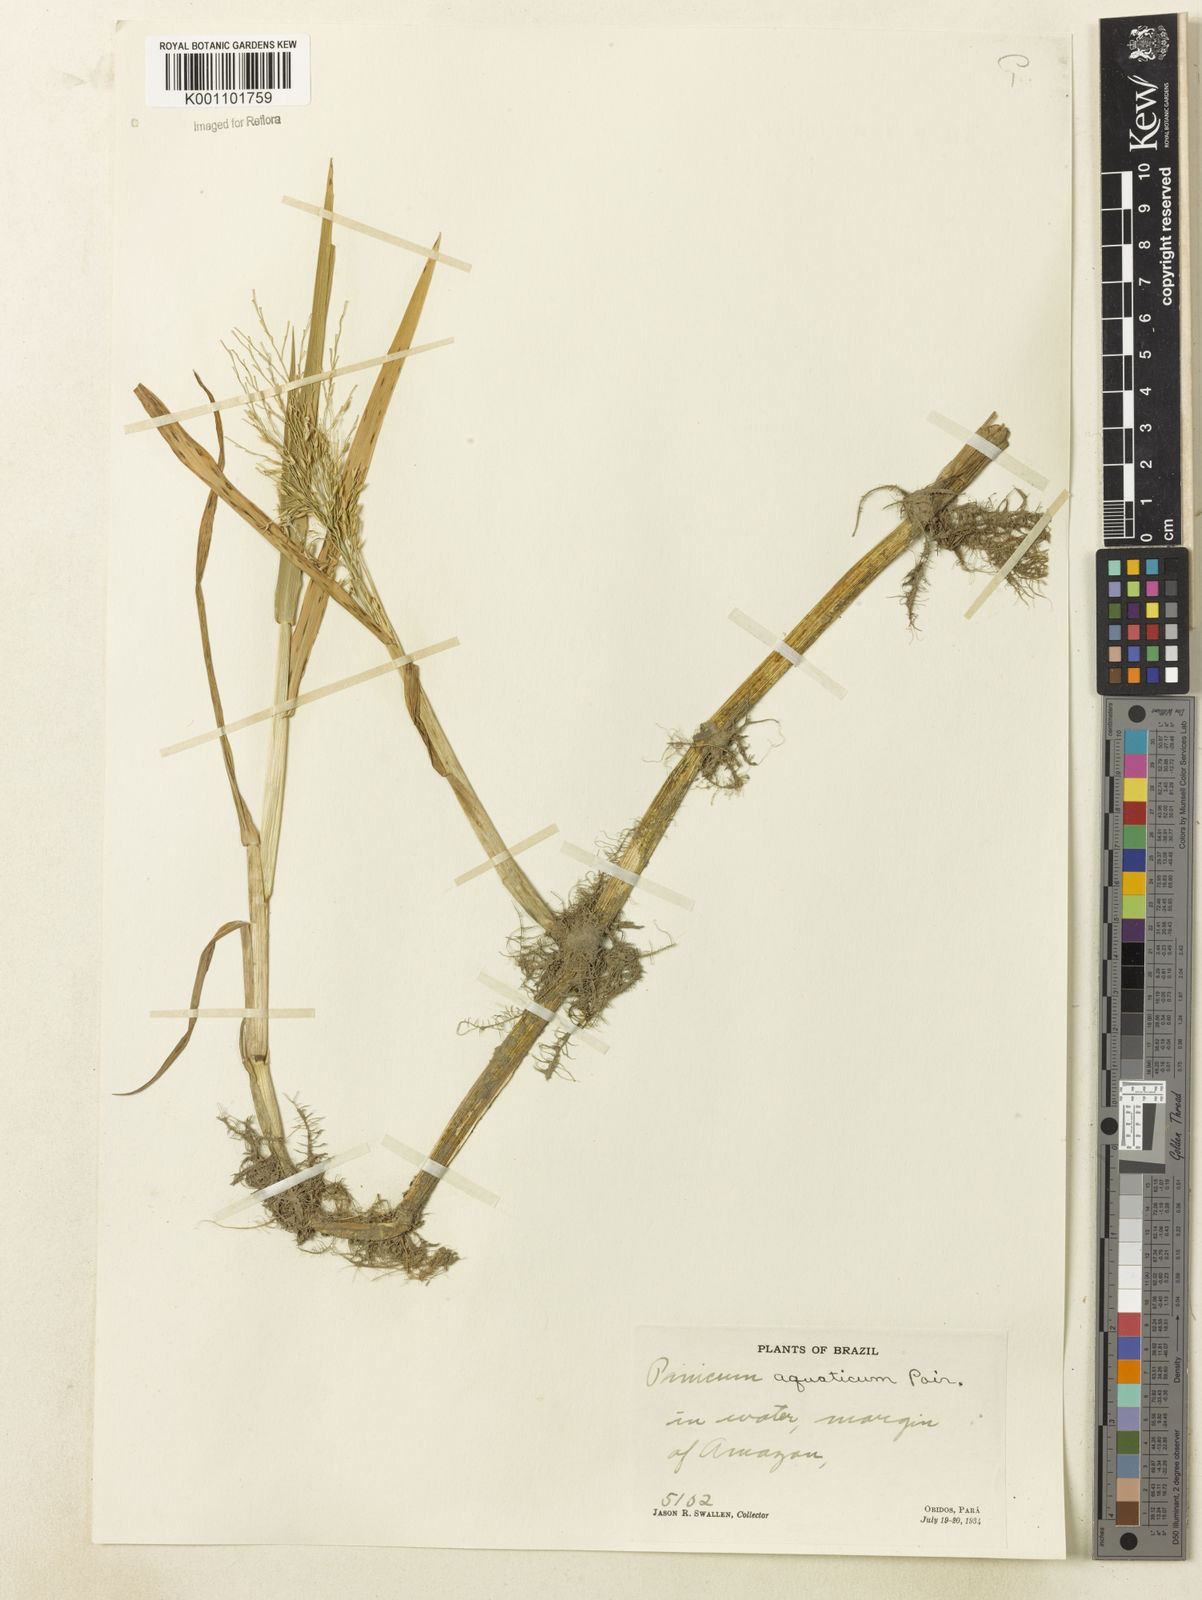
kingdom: Plantae
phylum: Tracheophyta
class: Liliopsida
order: Poales
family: Poaceae
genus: Louisiella
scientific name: Louisiella elephantipes
